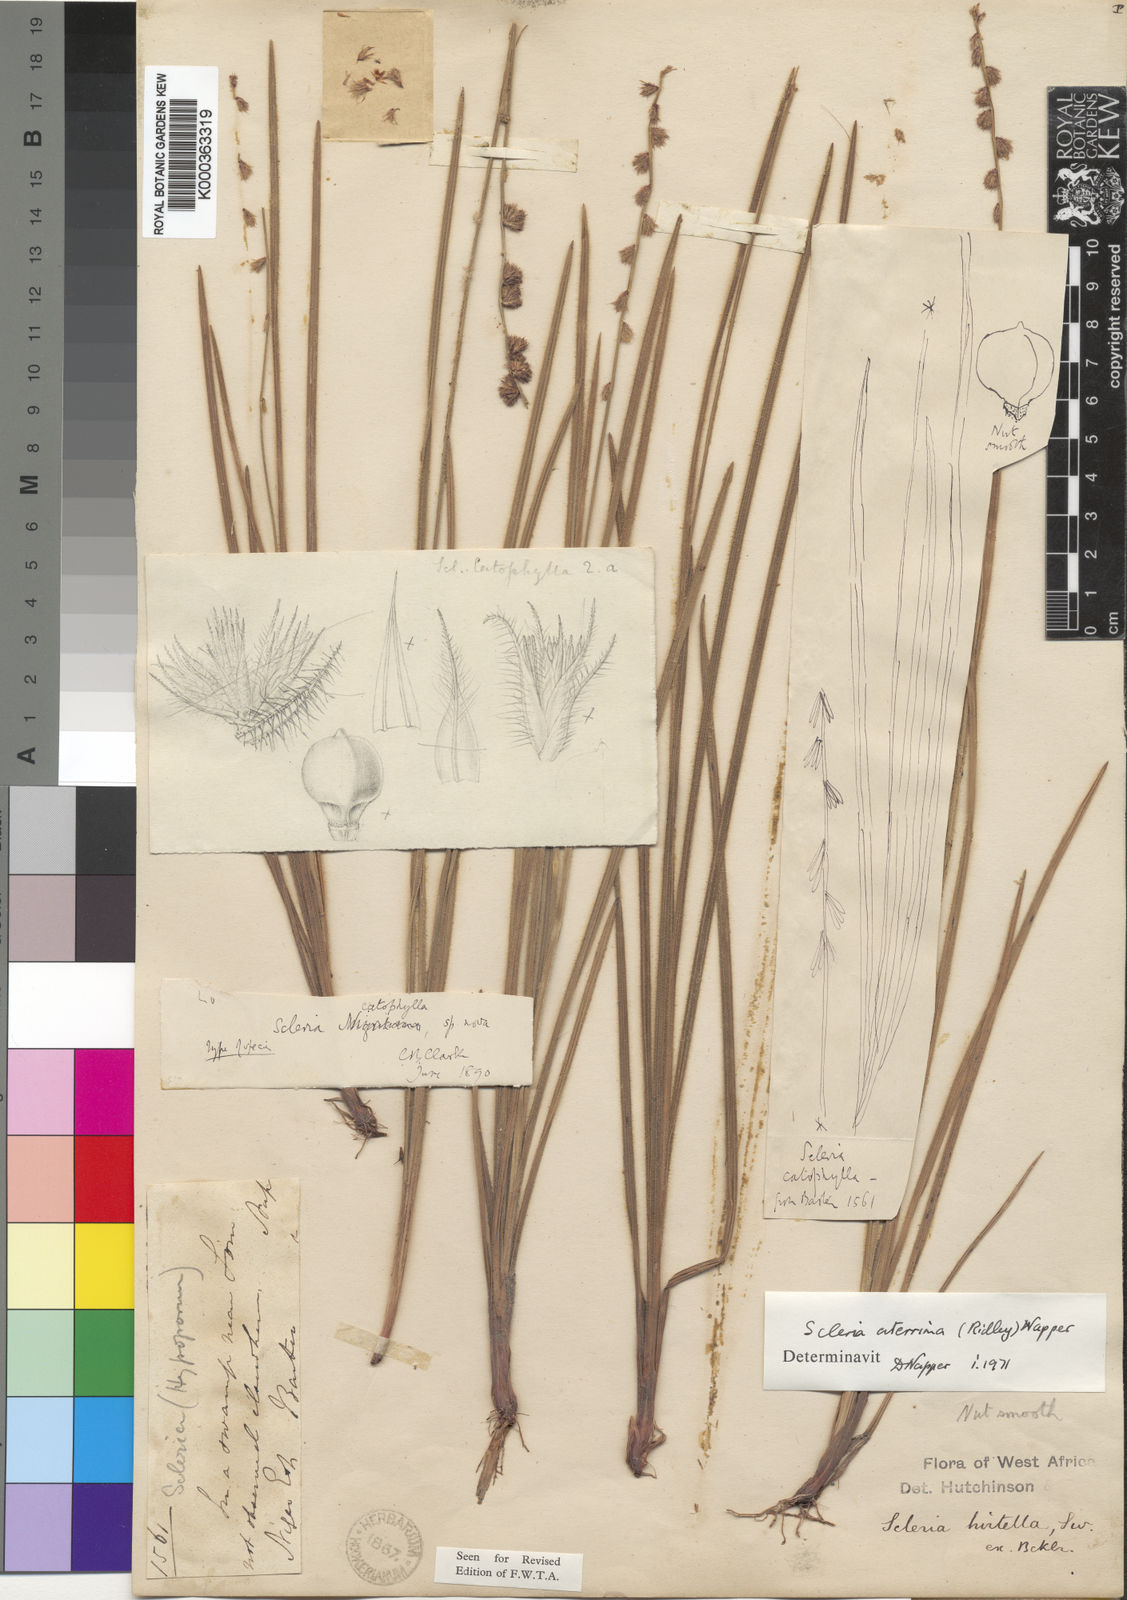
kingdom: Plantae
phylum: Tracheophyta
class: Liliopsida
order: Poales
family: Cyperaceae
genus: Scleria
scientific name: Scleria catophylla
